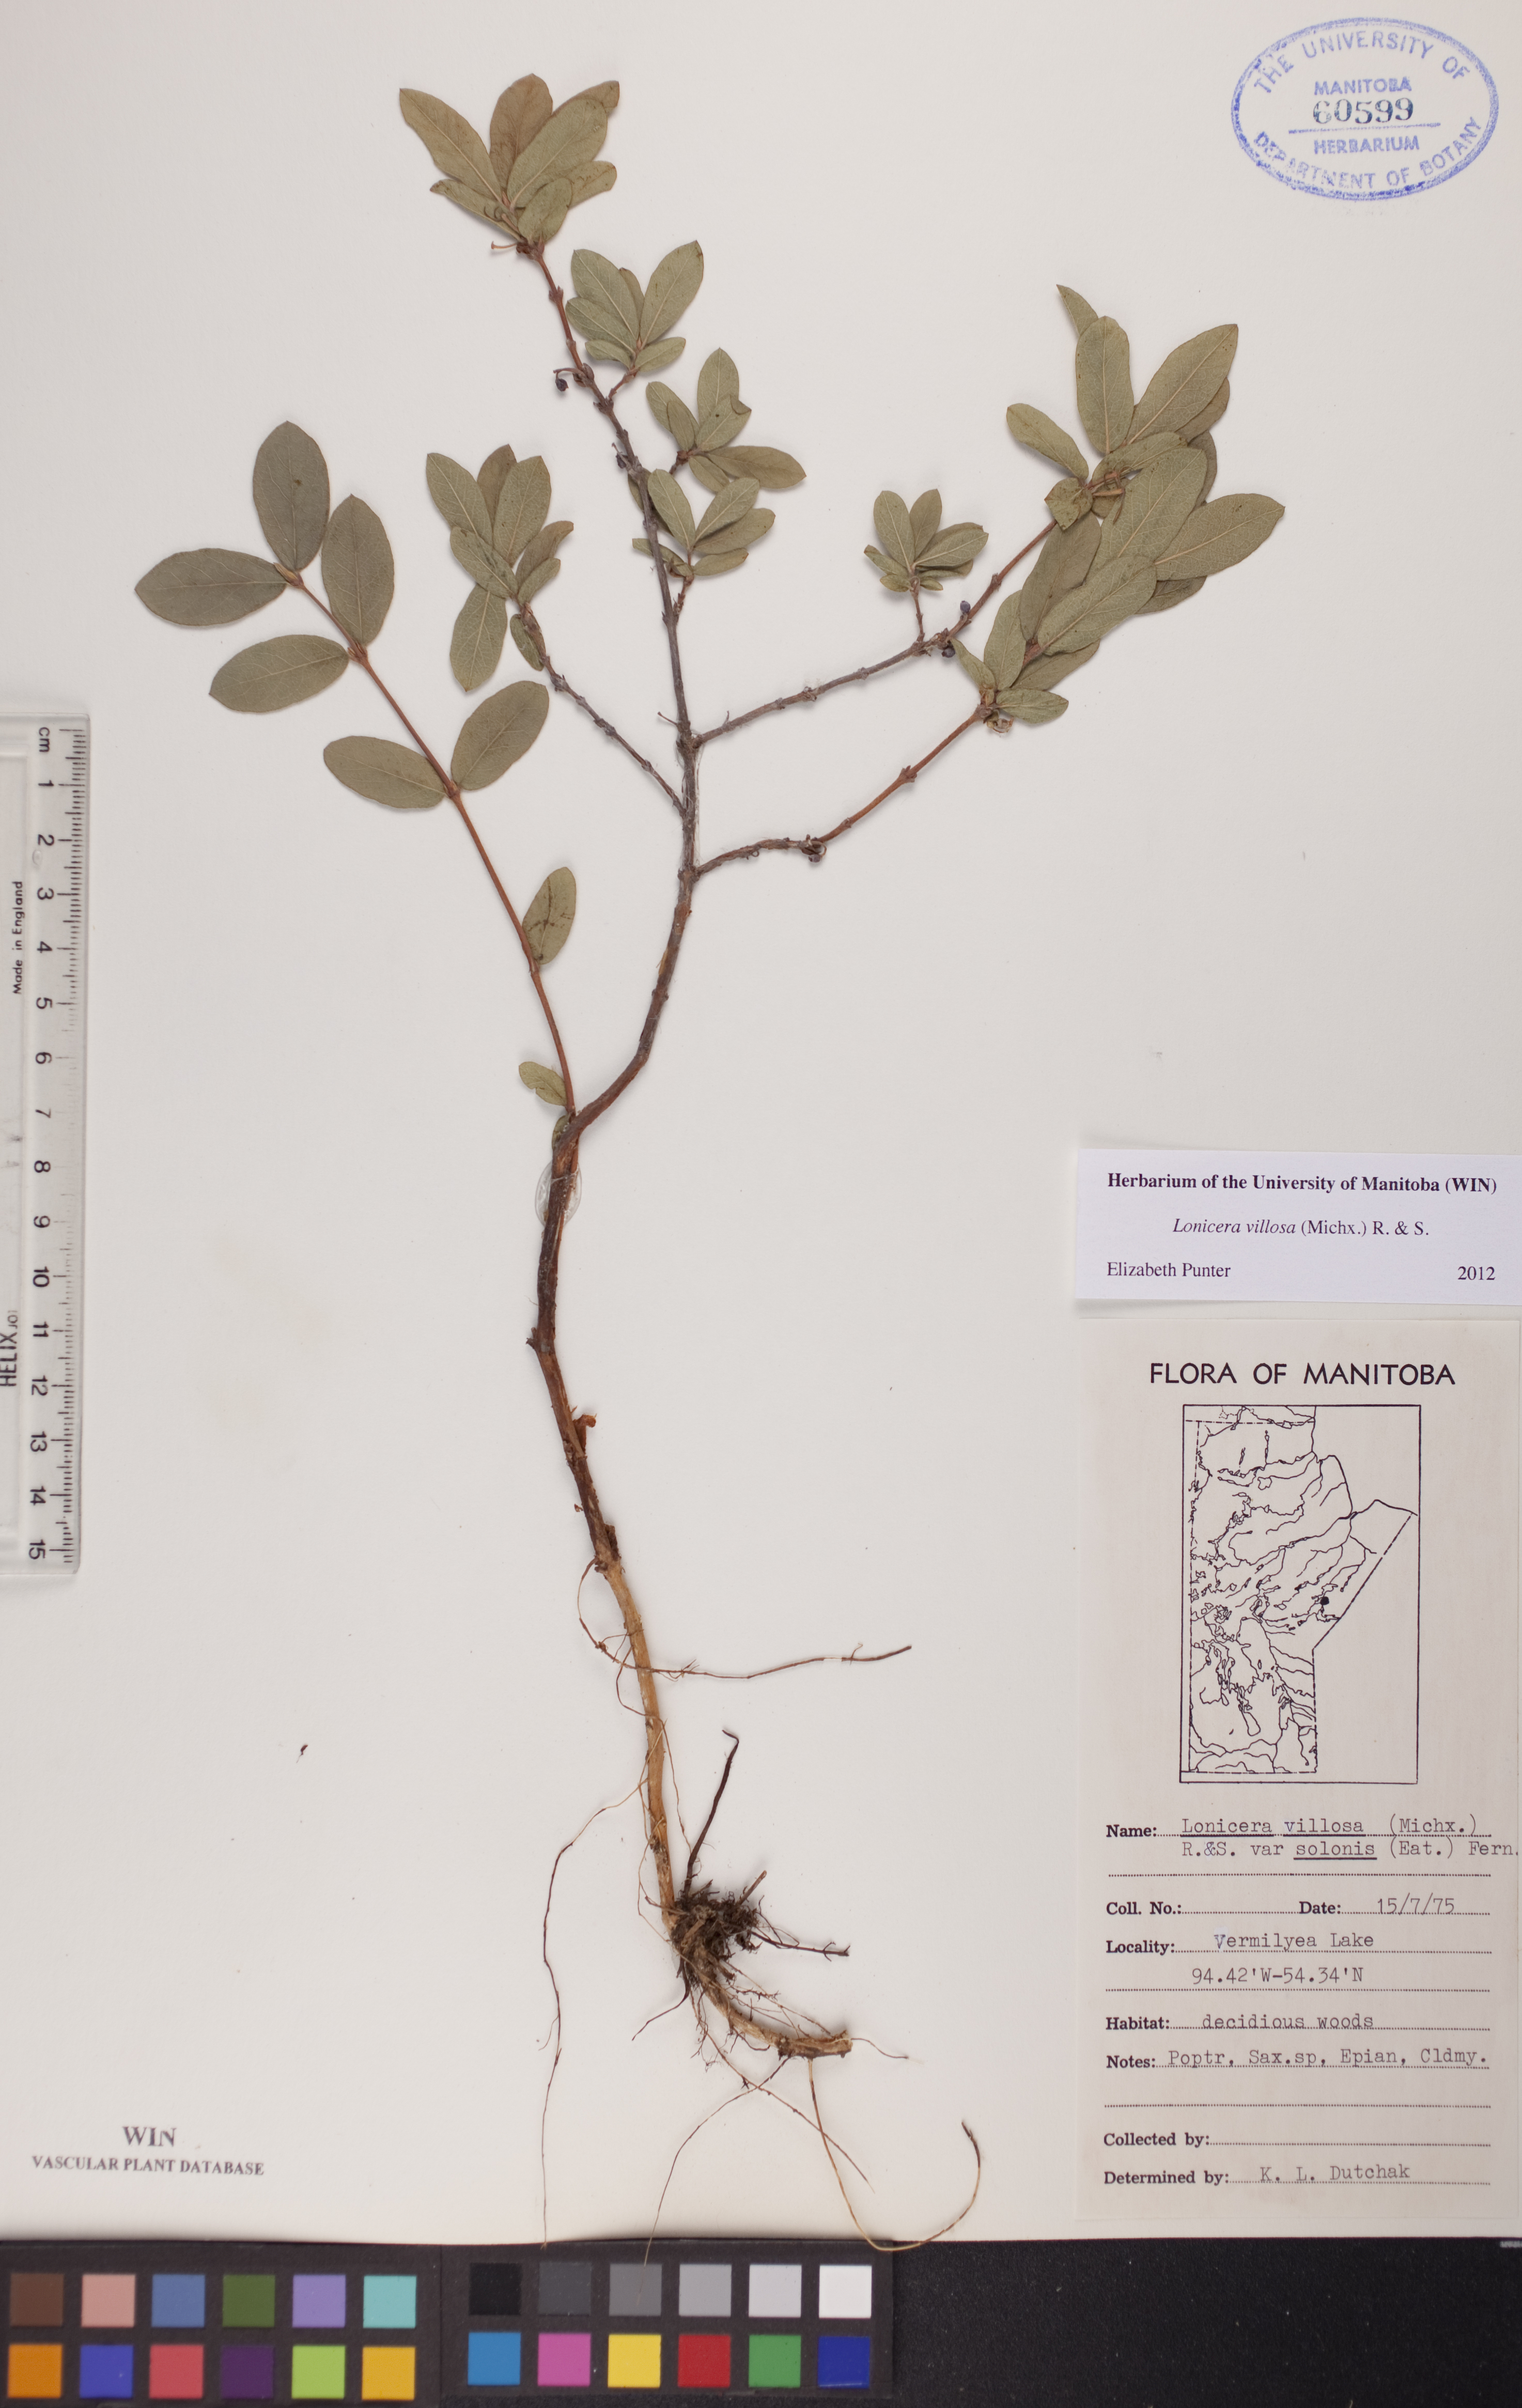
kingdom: Plantae
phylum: Tracheophyta
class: Magnoliopsida
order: Dipsacales
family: Caprifoliaceae
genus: Lonicera
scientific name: Lonicera villosa
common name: Mountain fly-honeysuckle
